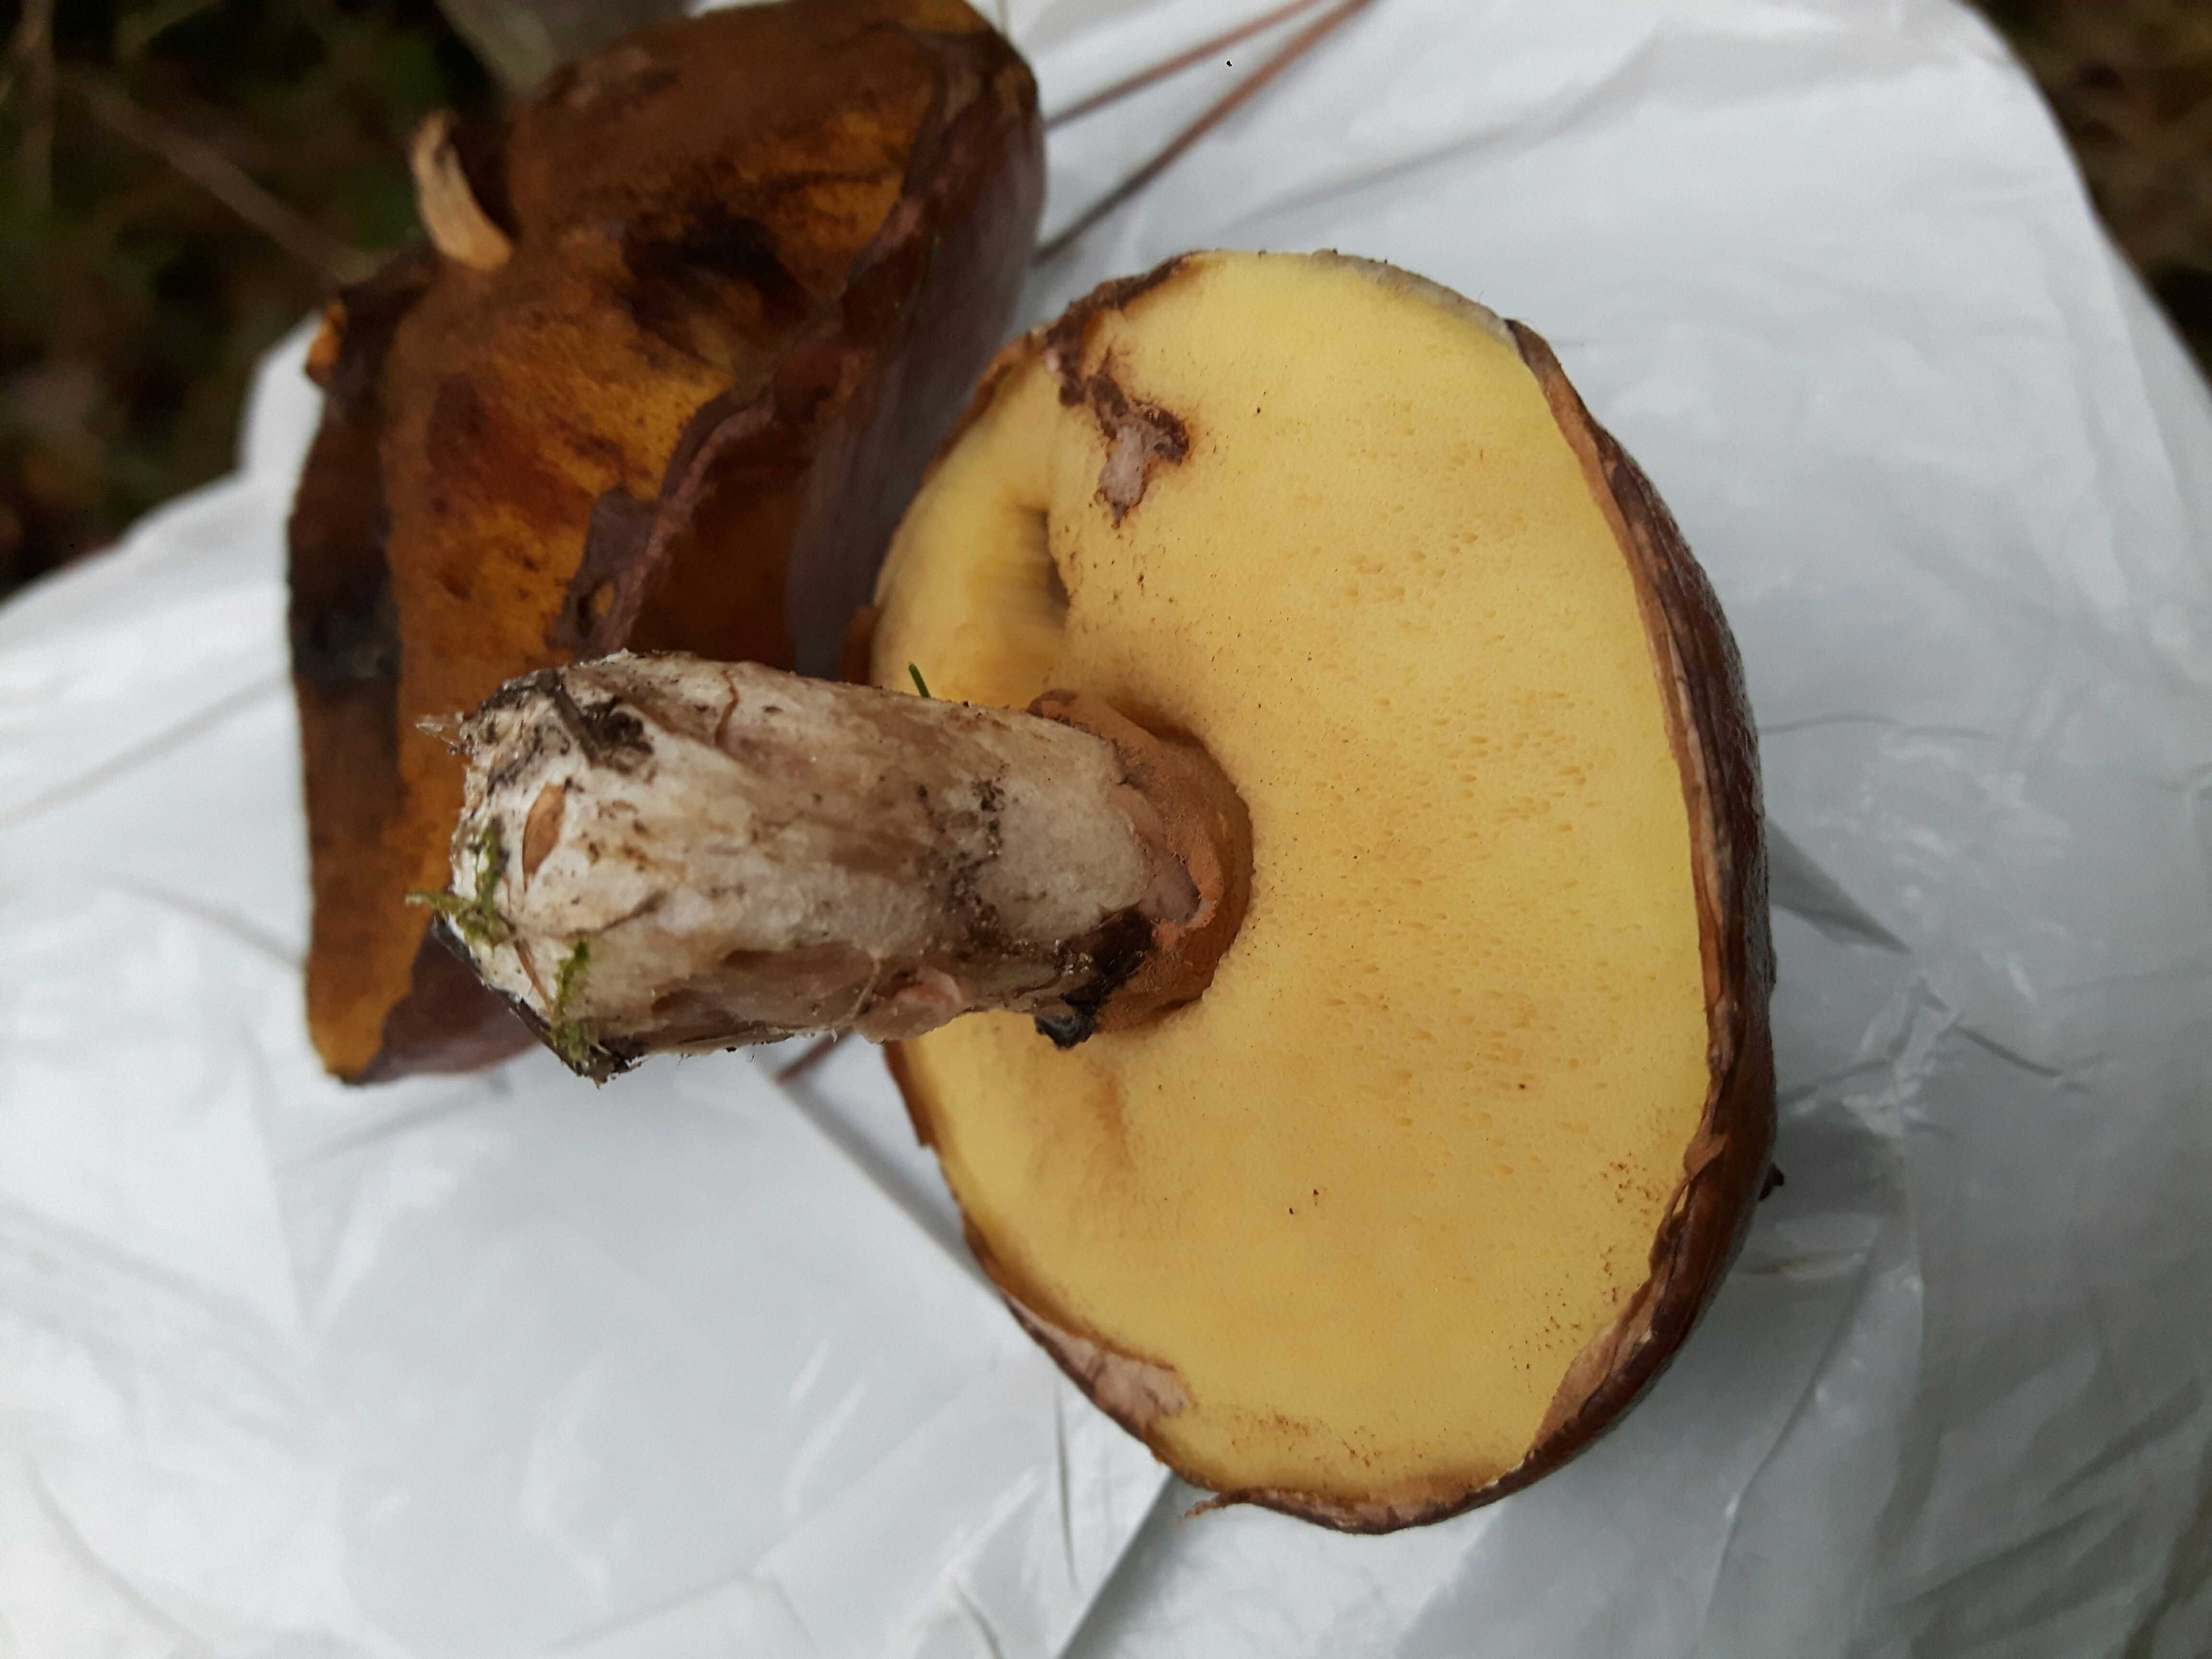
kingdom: Fungi
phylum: Basidiomycota
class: Agaricomycetes
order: Boletales
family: Suillaceae
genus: Suillus
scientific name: Suillus luteus
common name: brungul slimrørhat
